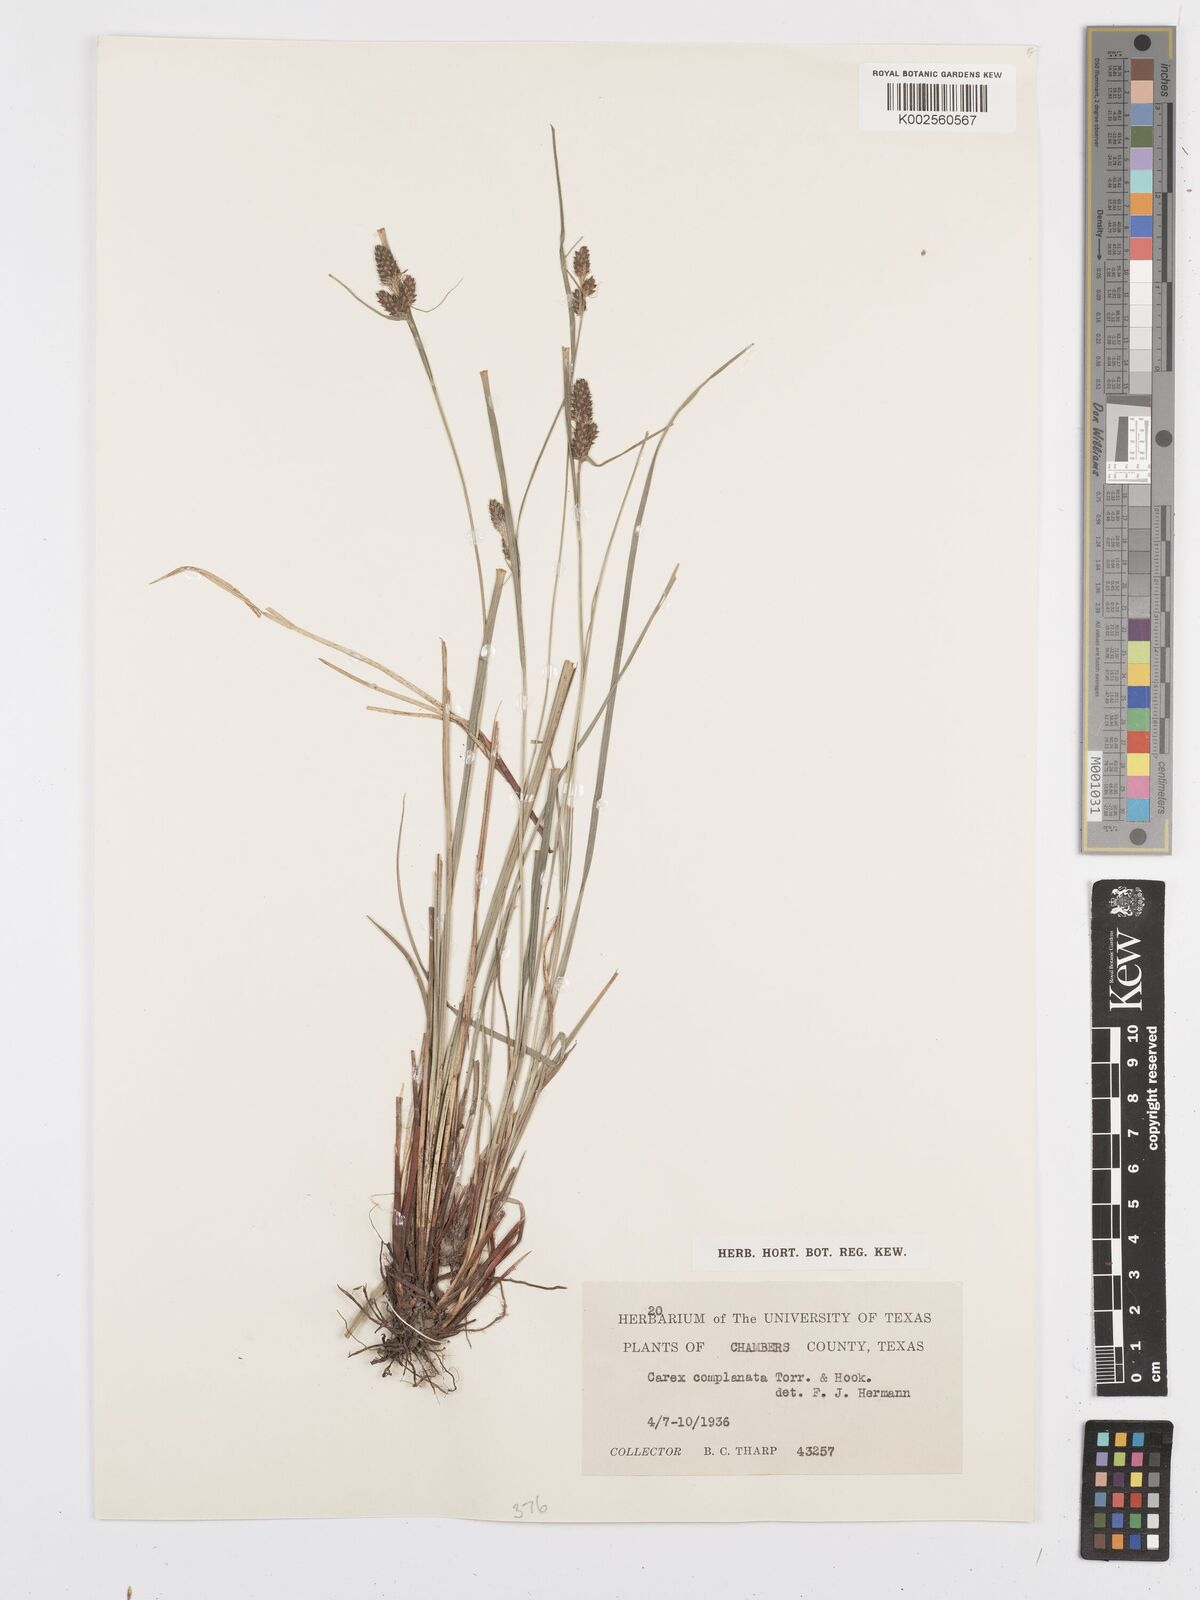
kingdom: Plantae
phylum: Tracheophyta
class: Liliopsida
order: Poales
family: Cyperaceae
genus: Carex
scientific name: Carex complanata
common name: Hirsute sedge
